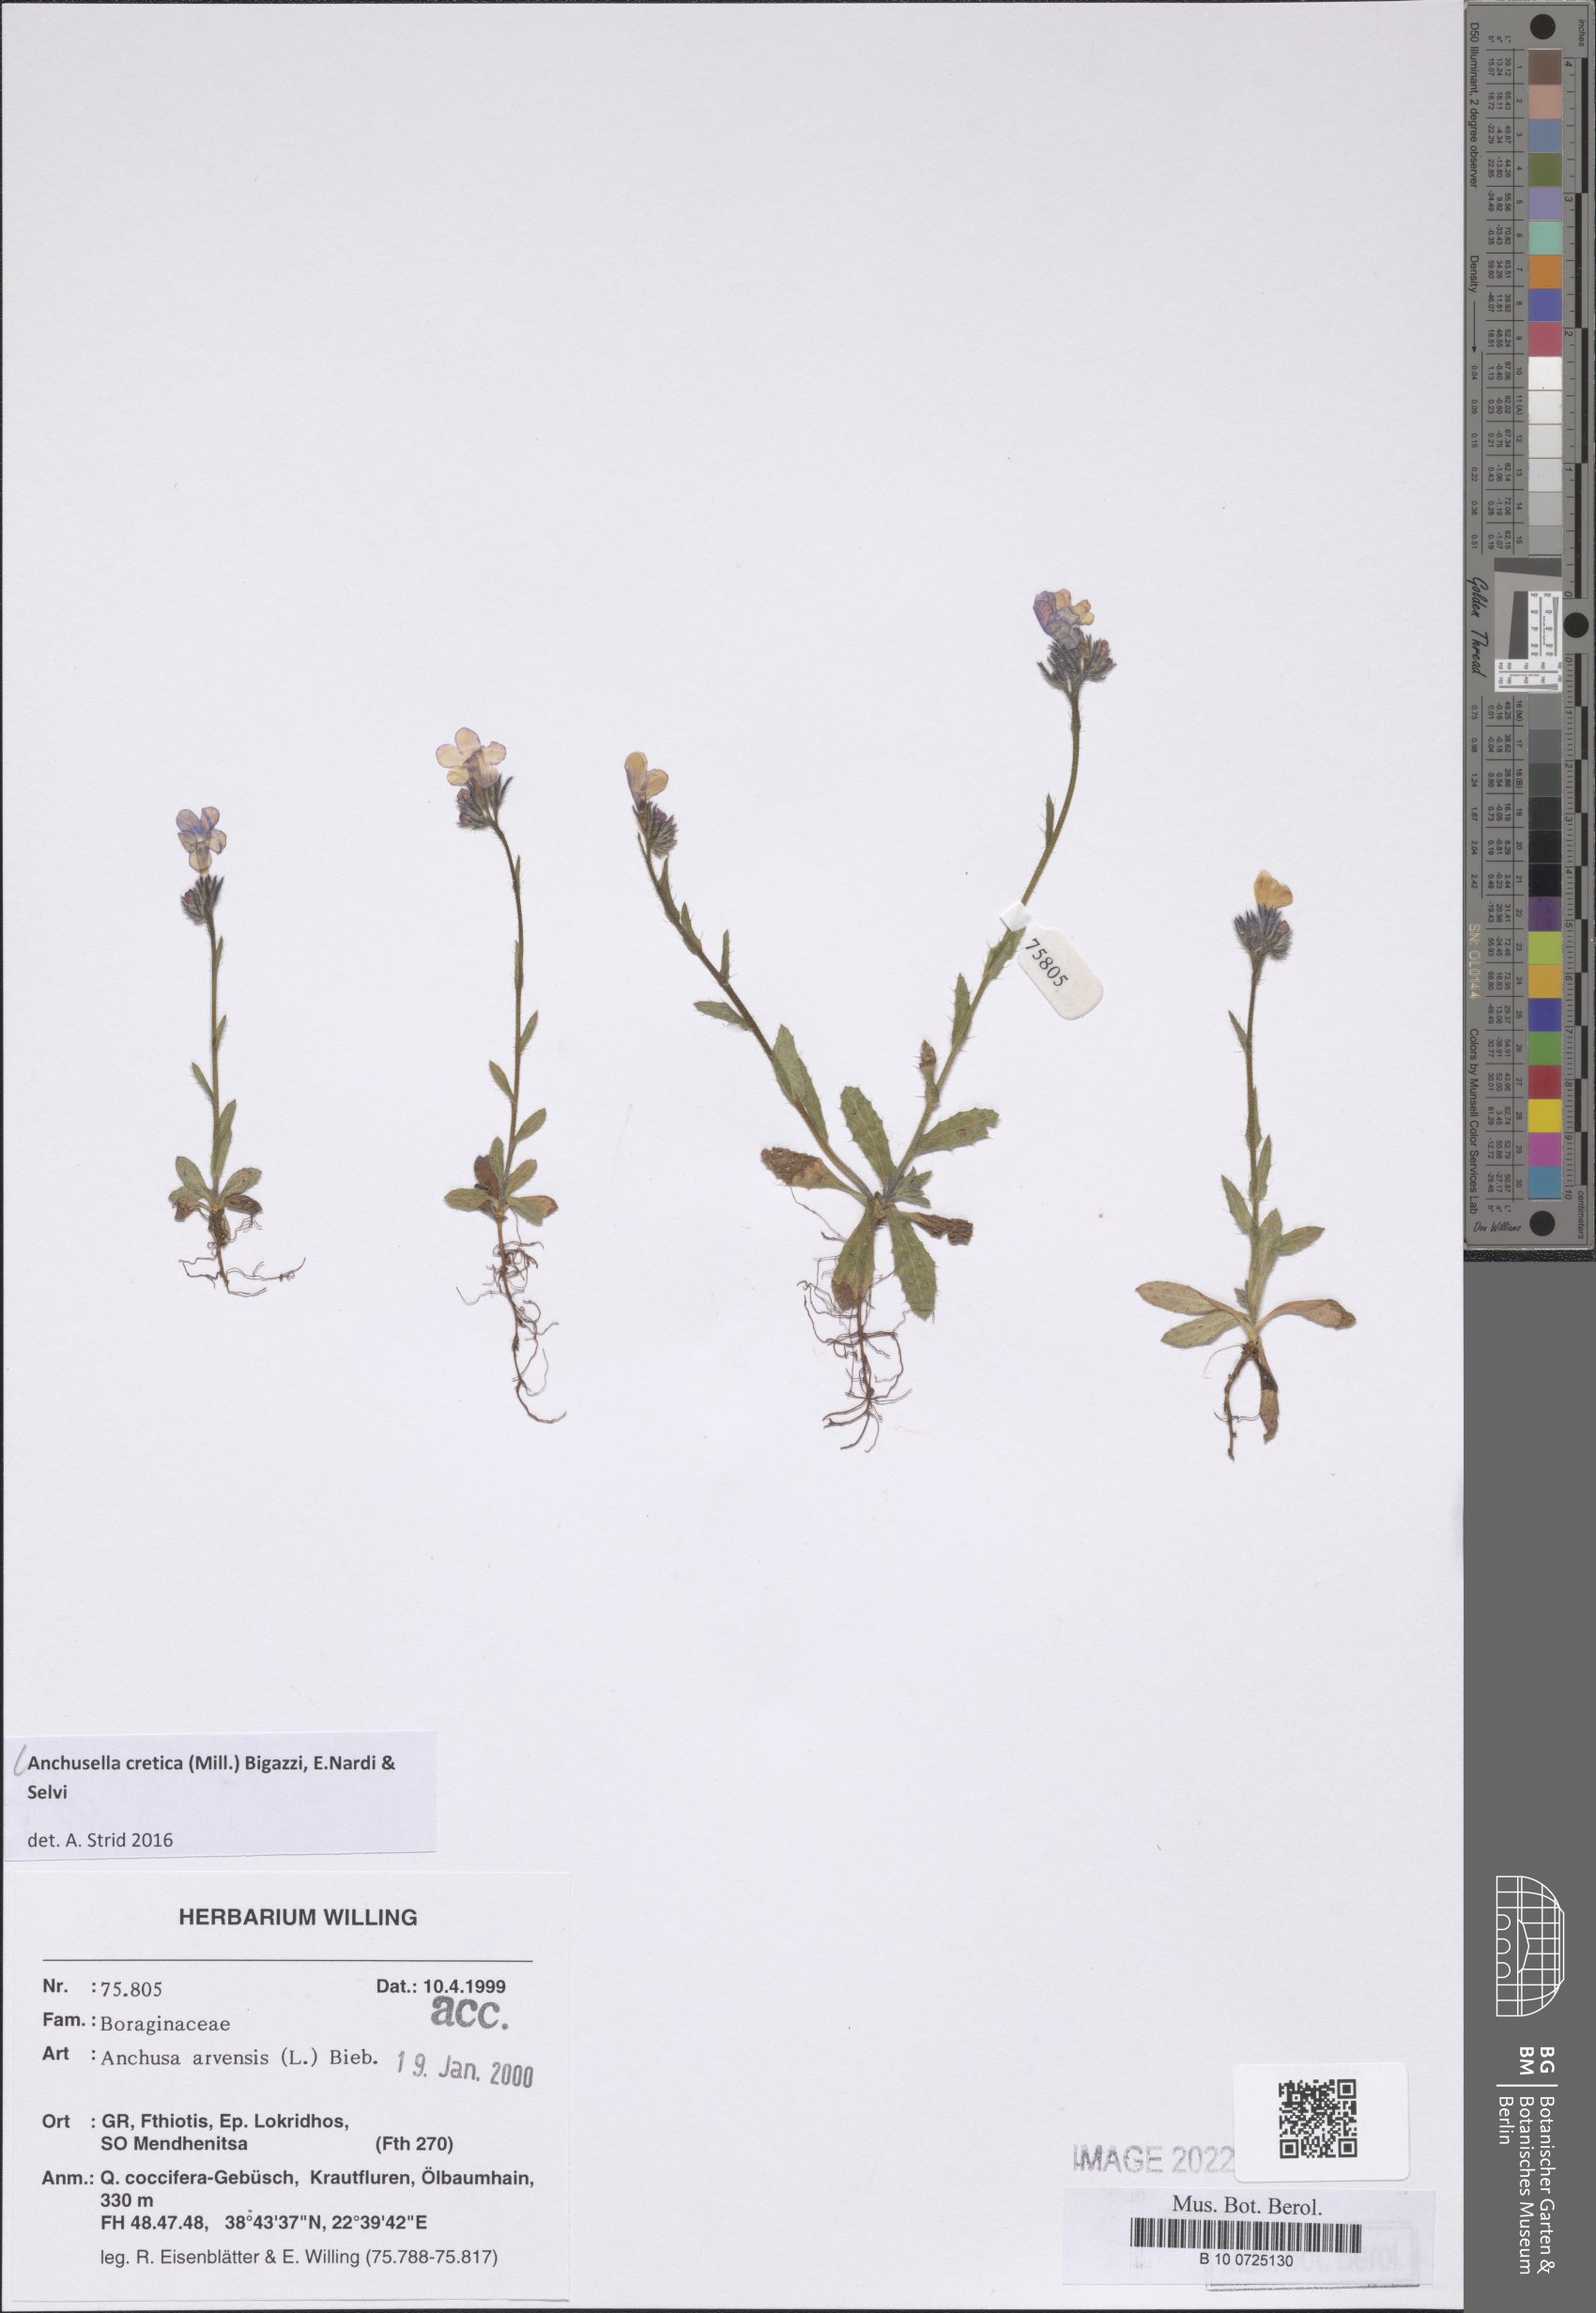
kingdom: Plantae
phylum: Tracheophyta
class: Magnoliopsida
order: Boraginales
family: Boraginaceae
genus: Anchusella
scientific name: Anchusella cretica
